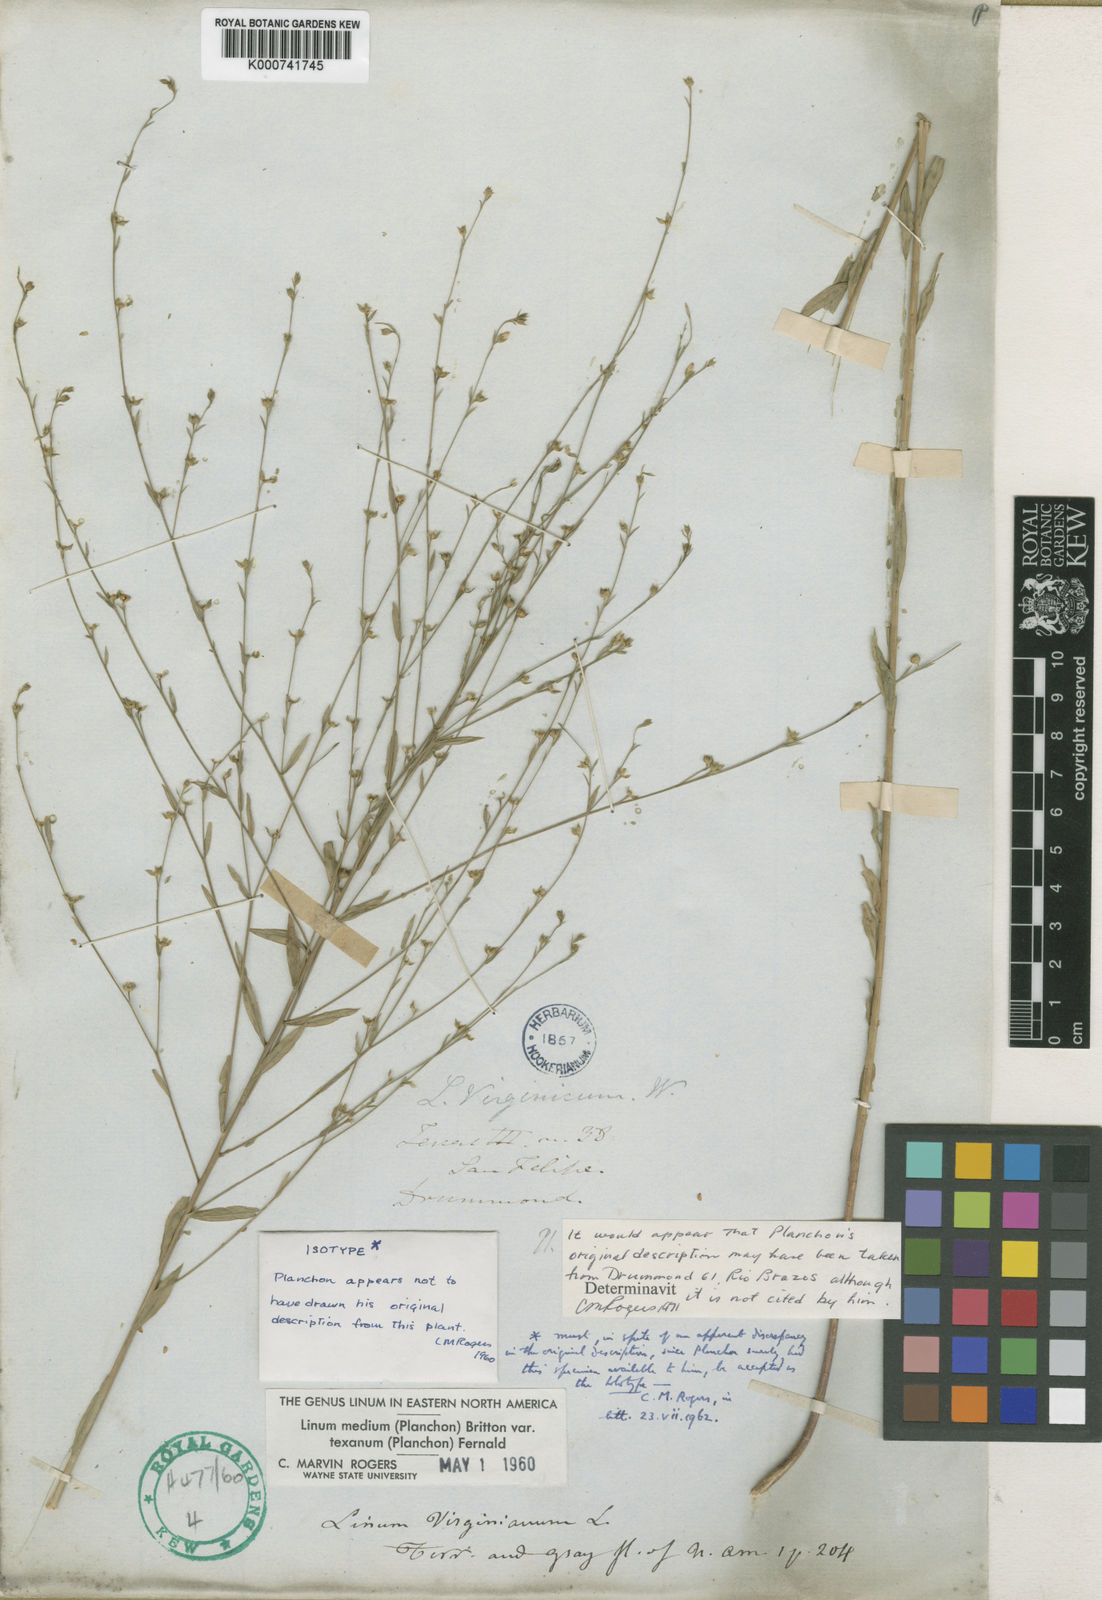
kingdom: Plantae
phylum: Tracheophyta
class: Magnoliopsida
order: Malpighiales
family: Linaceae
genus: Linum
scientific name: Linum medium
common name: Stiff yellow flax
